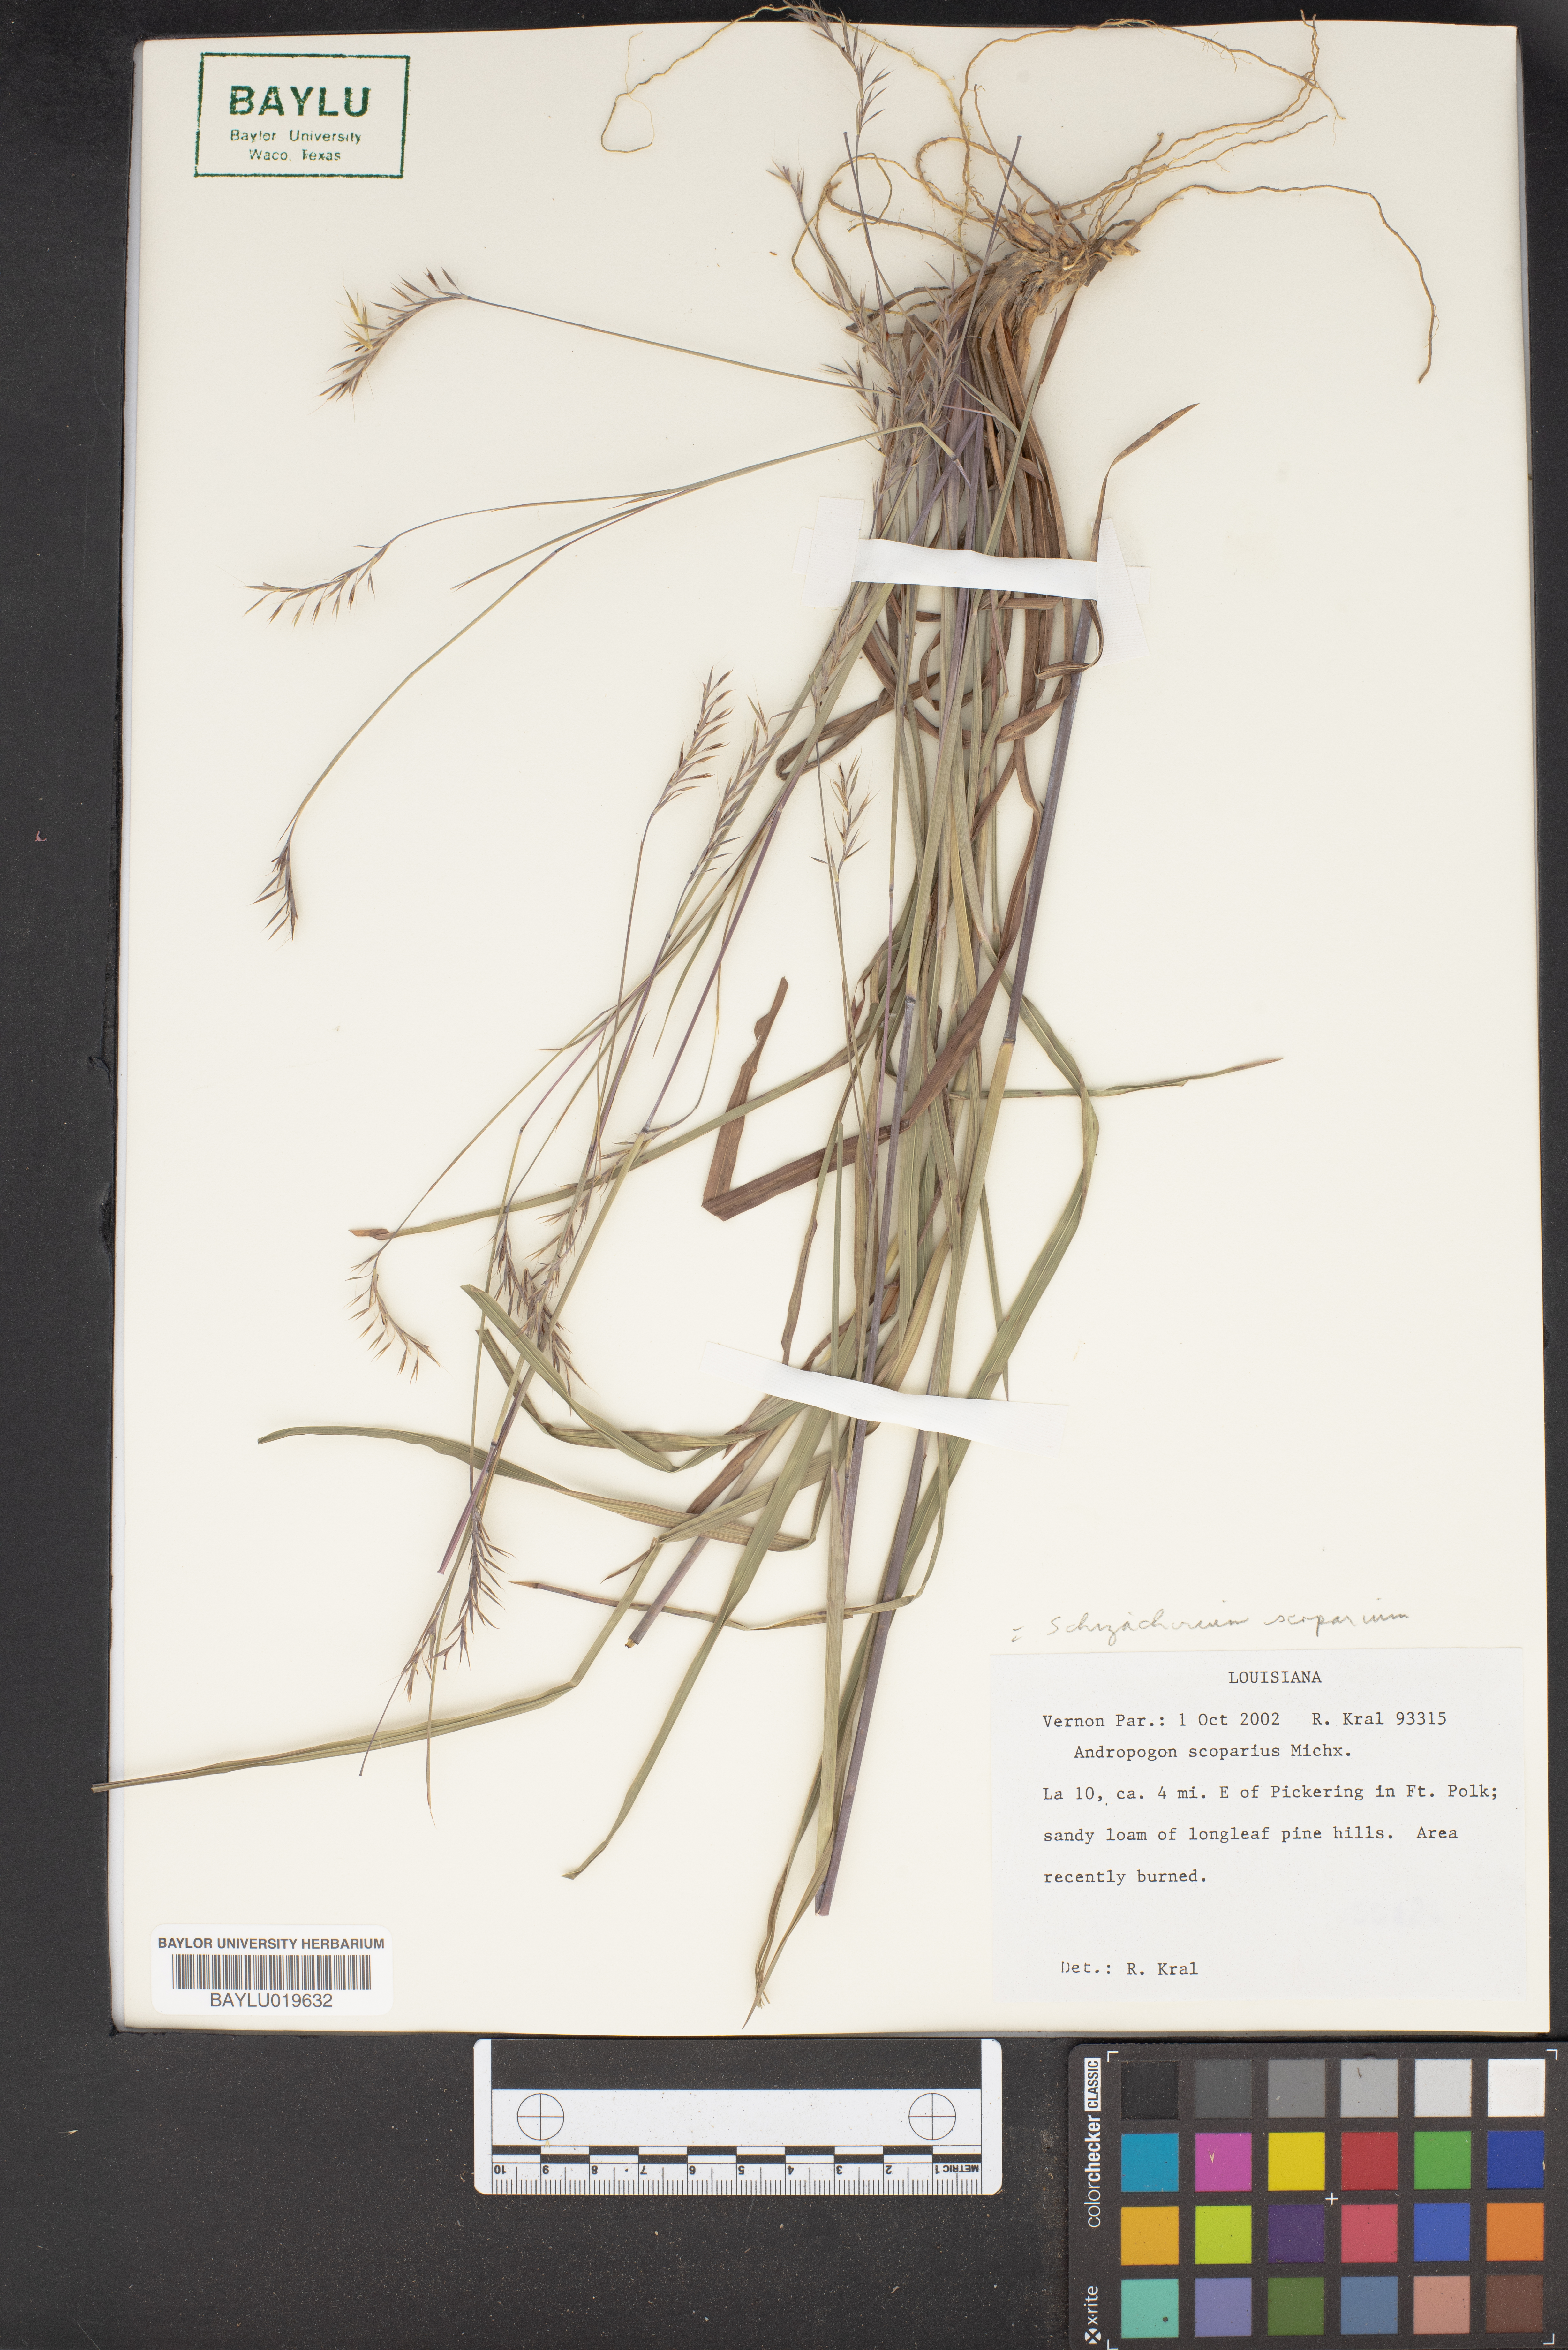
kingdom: Plantae
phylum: Tracheophyta
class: Liliopsida
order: Poales
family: Poaceae
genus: Schizachyrium
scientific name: Schizachyrium scoparium
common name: Little bluestem
